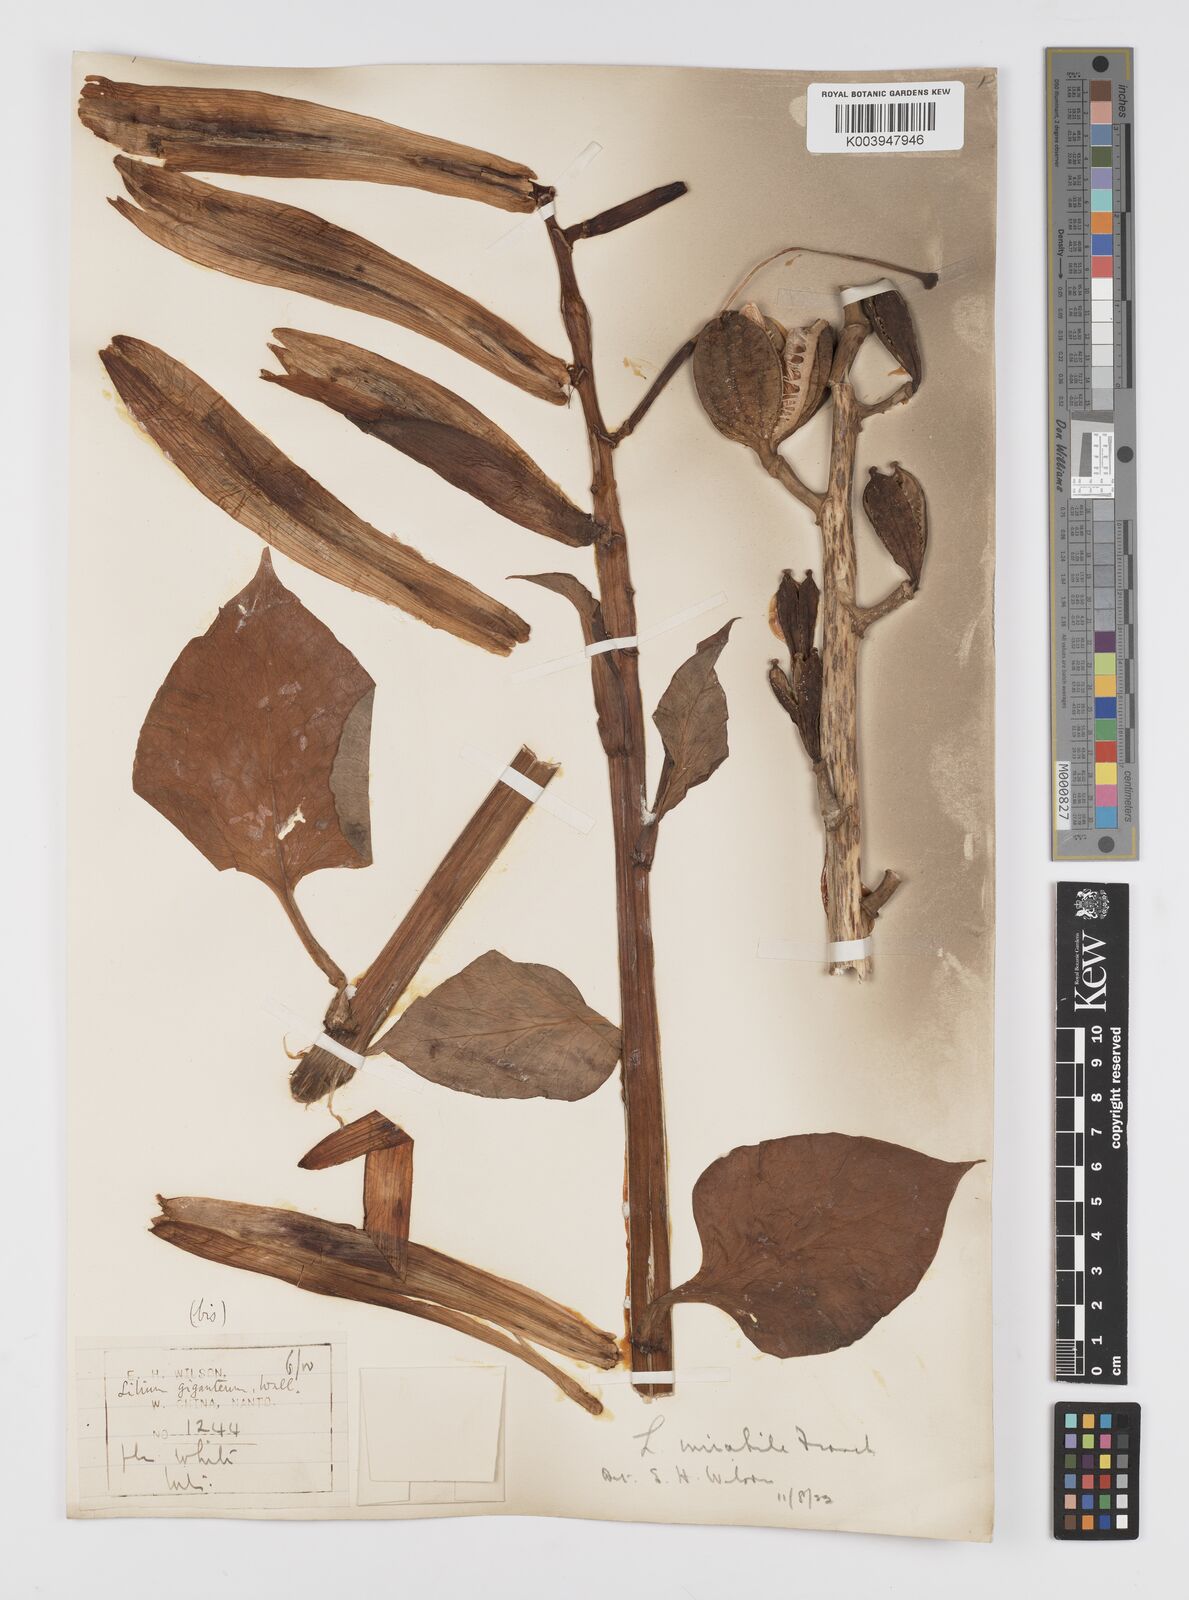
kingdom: Plantae
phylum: Tracheophyta
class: Liliopsida
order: Liliales
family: Liliaceae
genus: Cardiocrinum
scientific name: Cardiocrinum giganteum
